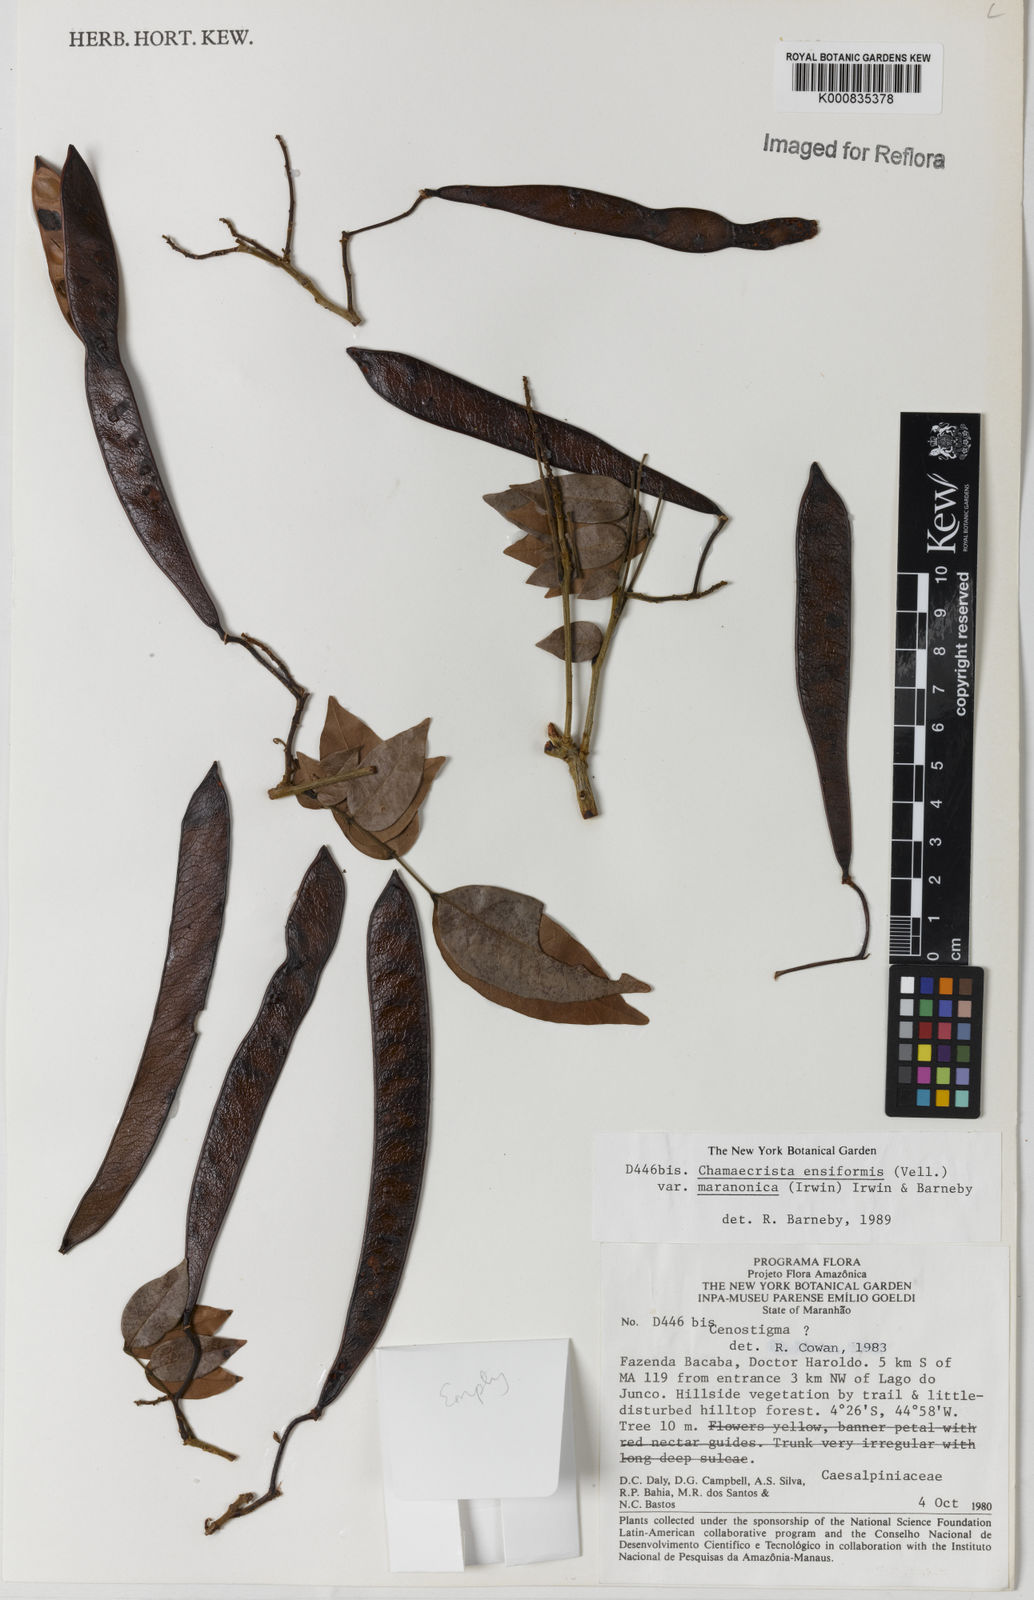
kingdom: Plantae
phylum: Tracheophyta
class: Magnoliopsida
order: Fabales
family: Fabaceae
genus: Chamaecrista
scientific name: Chamaecrista ensiformis
